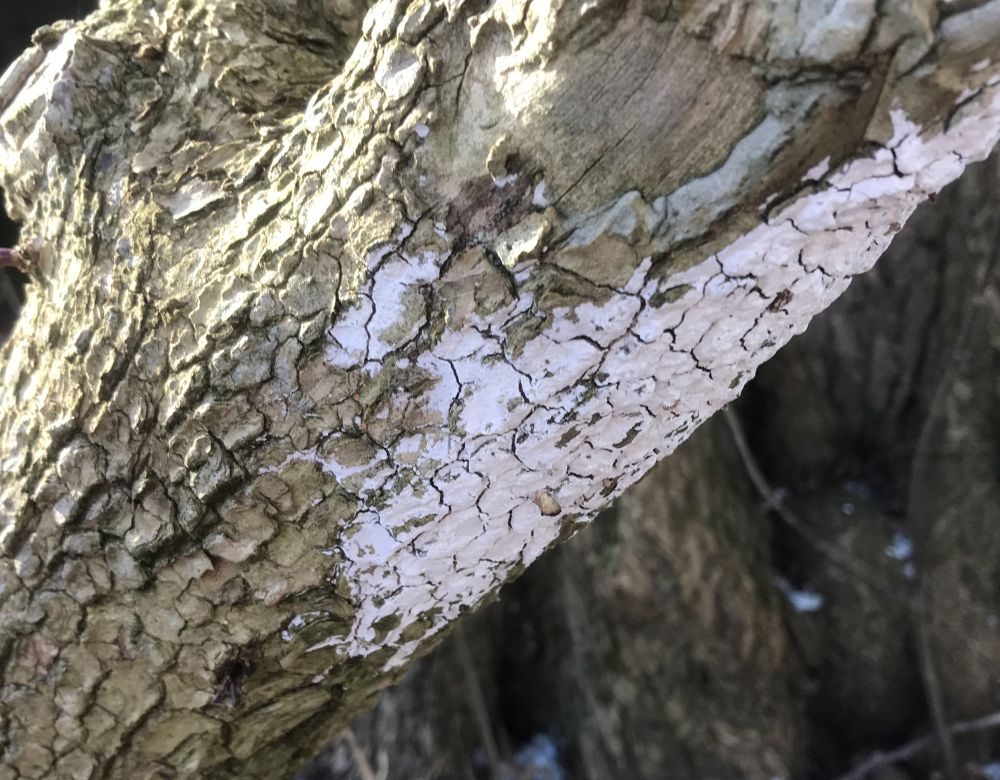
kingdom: Fungi
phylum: Basidiomycota
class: Agaricomycetes
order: Corticiales
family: Corticiaceae
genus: Lyomyces
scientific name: Lyomyces sambuci
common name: almindelig hyldehinde
